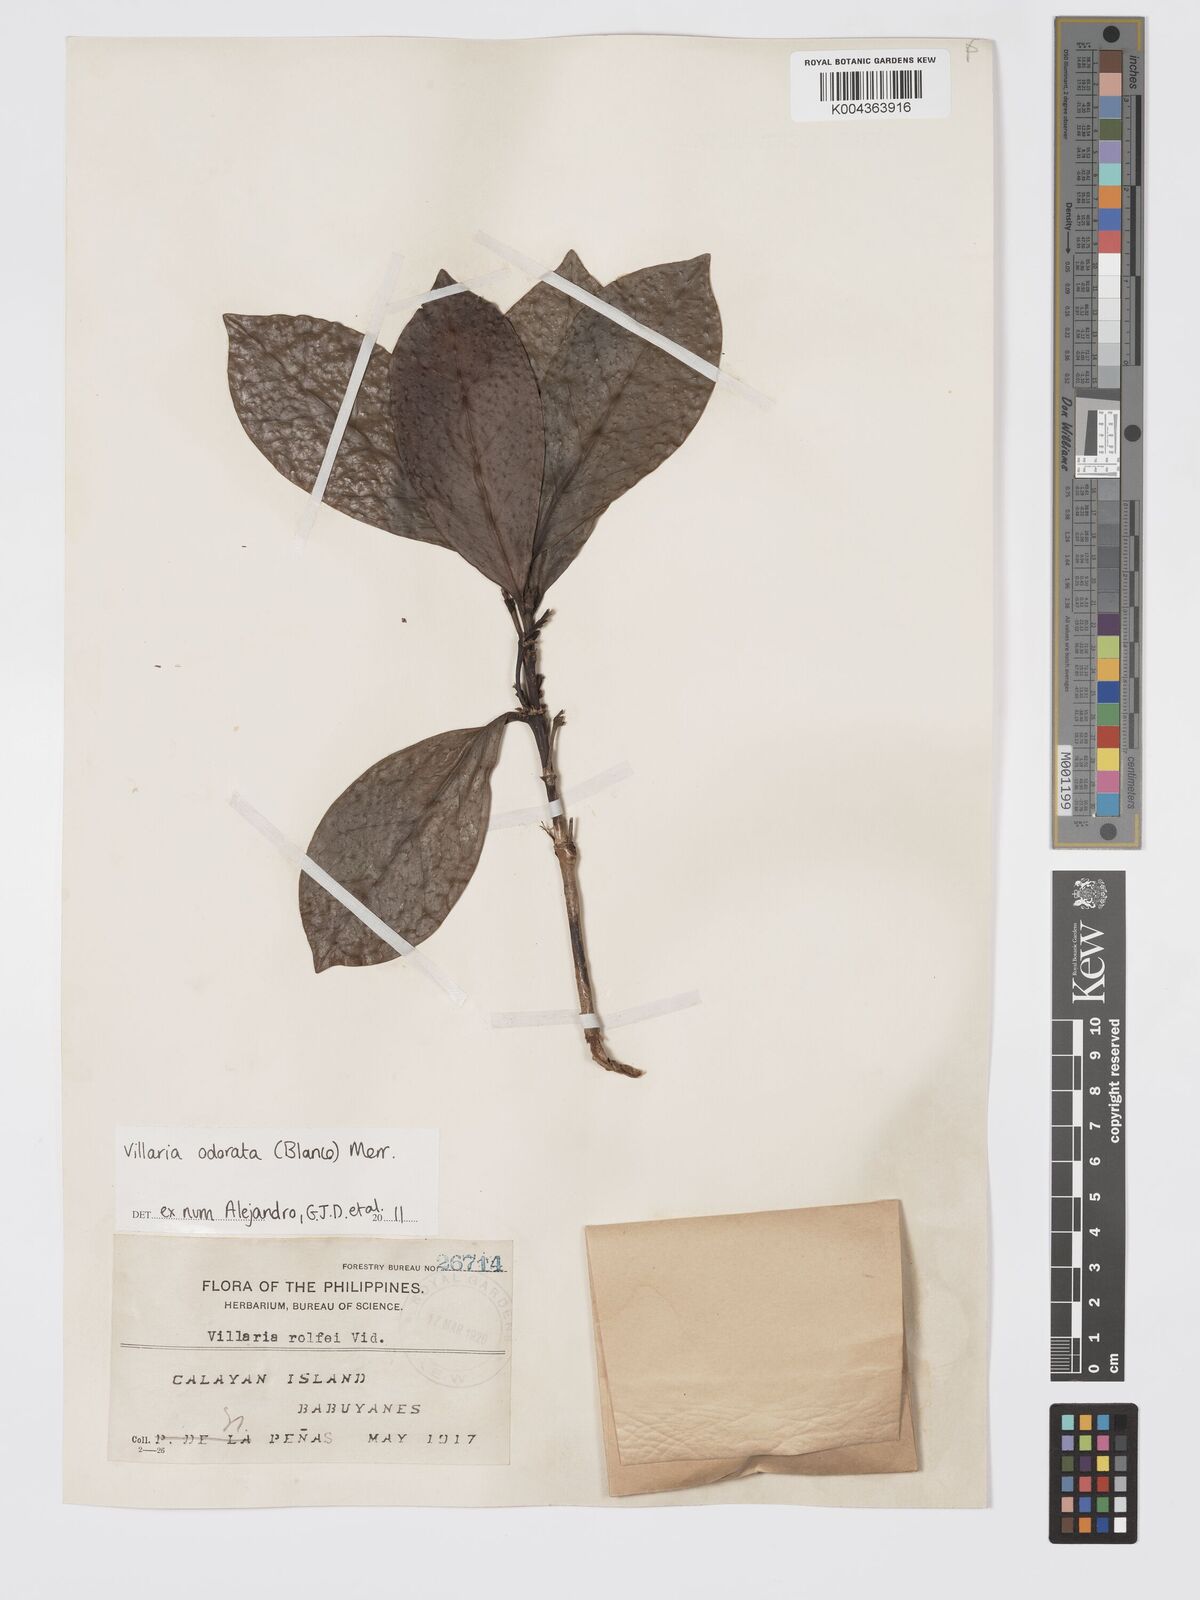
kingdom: Plantae
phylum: Tracheophyta
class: Magnoliopsida
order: Gentianales
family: Rubiaceae
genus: Villaria
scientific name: Villaria odorata
